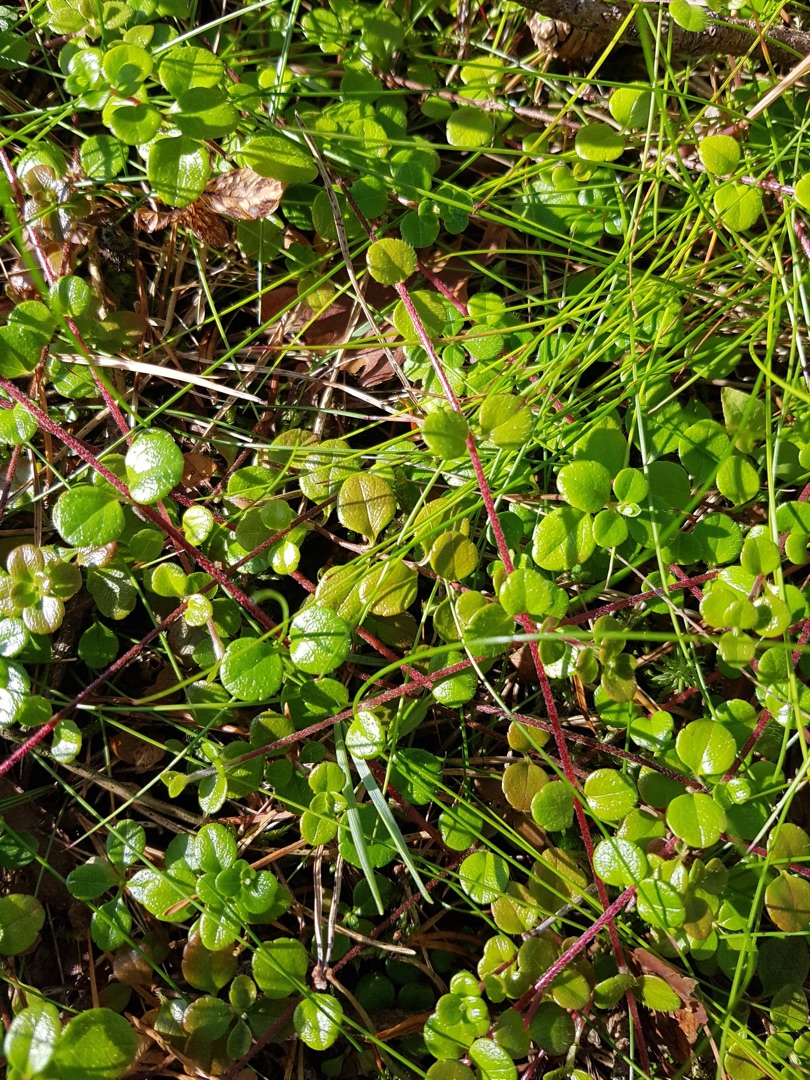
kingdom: Plantae
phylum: Tracheophyta
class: Magnoliopsida
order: Dipsacales
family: Caprifoliaceae
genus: Linnaea
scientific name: Linnaea borealis
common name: Linnæa
